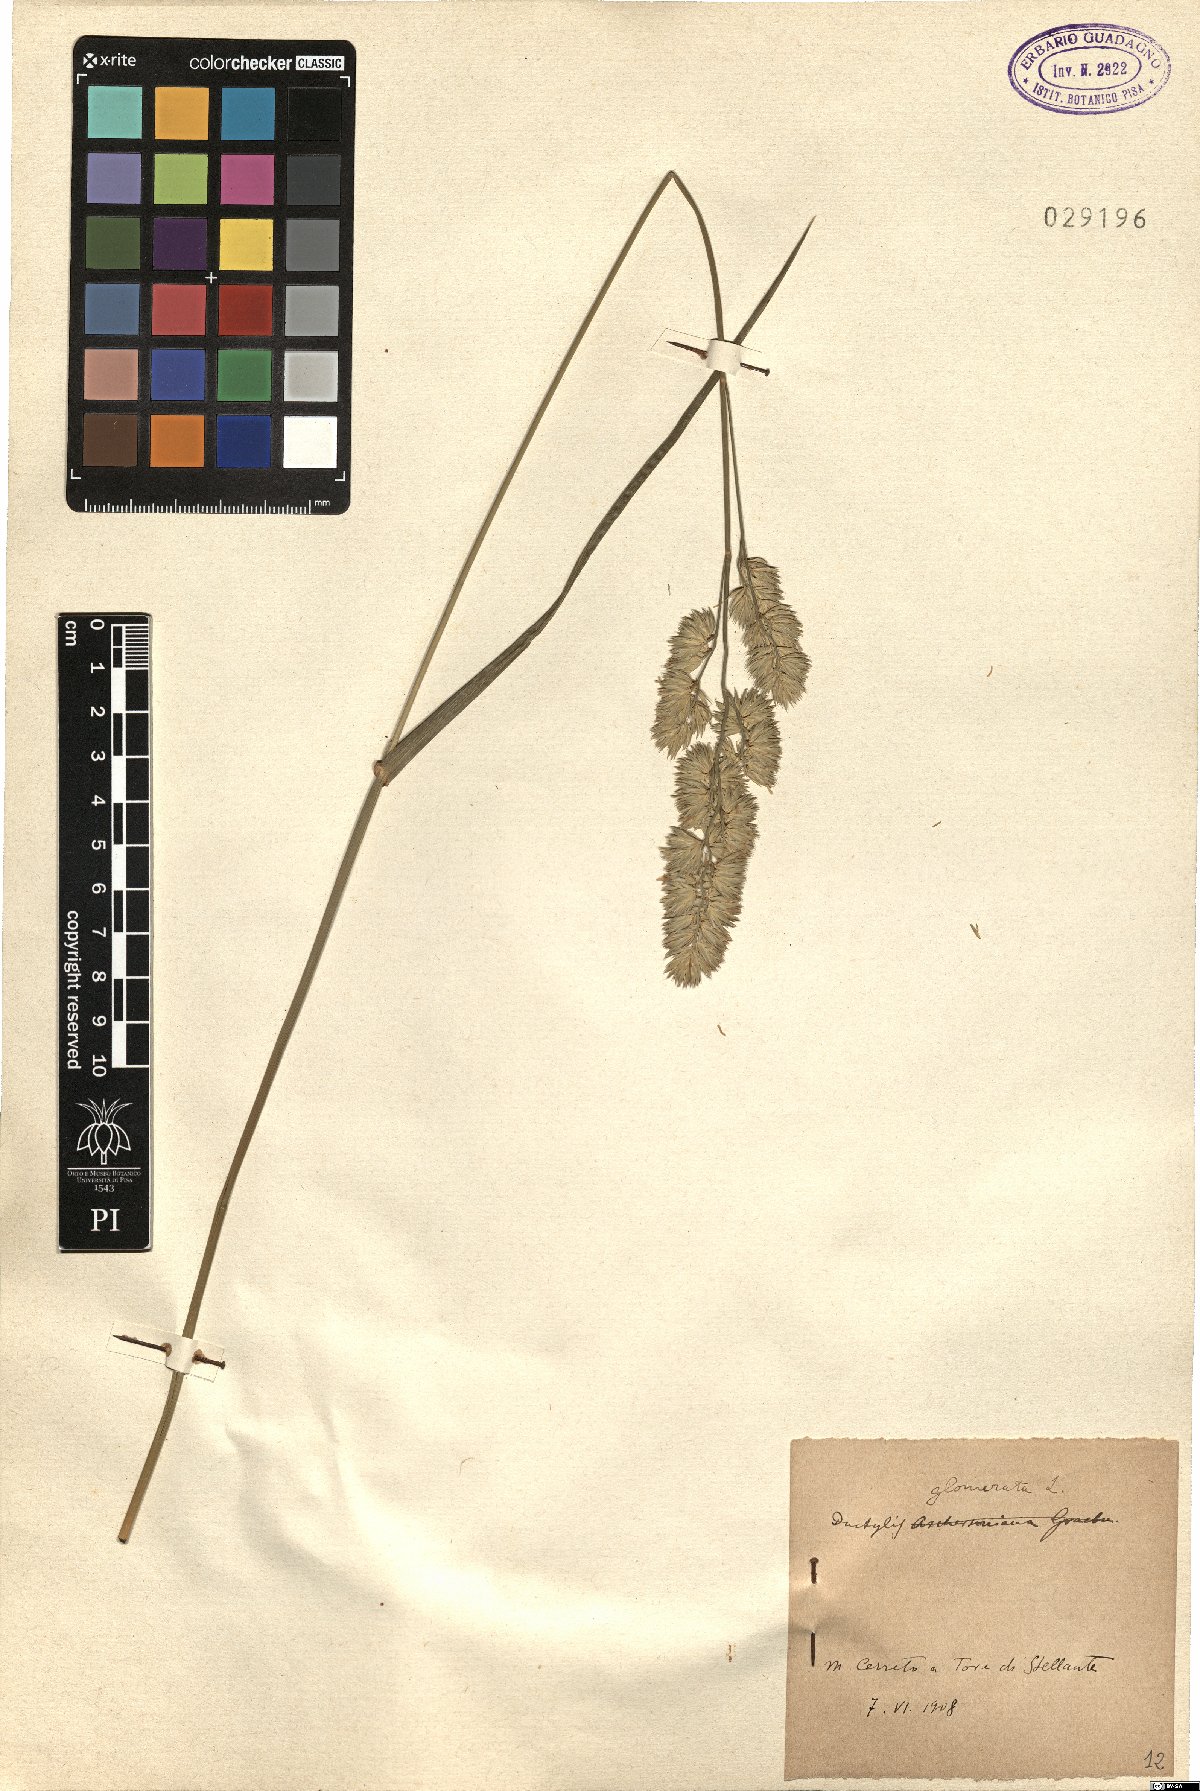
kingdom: Plantae
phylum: Tracheophyta
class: Liliopsida
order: Poales
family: Poaceae
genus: Dactylis
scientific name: Dactylis glomerata
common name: Orchardgrass
